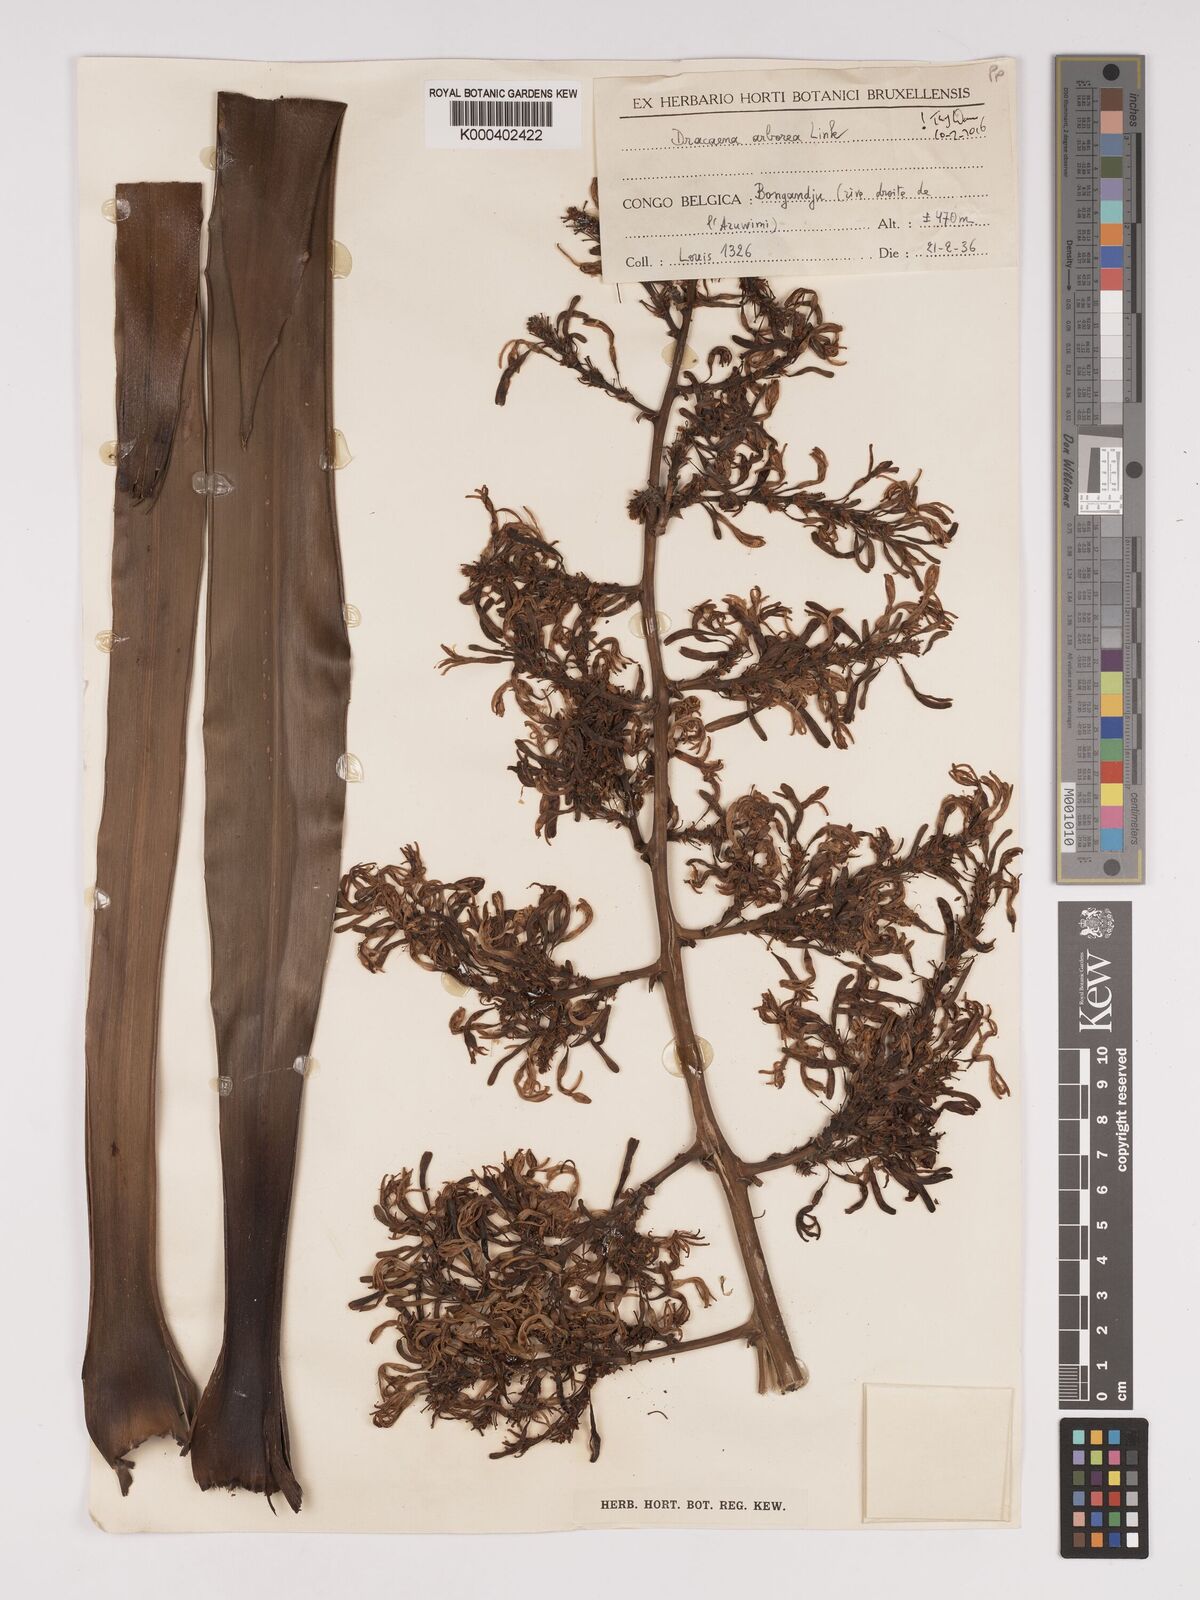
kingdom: Plantae
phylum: Tracheophyta
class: Liliopsida
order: Asparagales
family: Asparagaceae
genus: Dracaena
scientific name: Dracaena arborea
